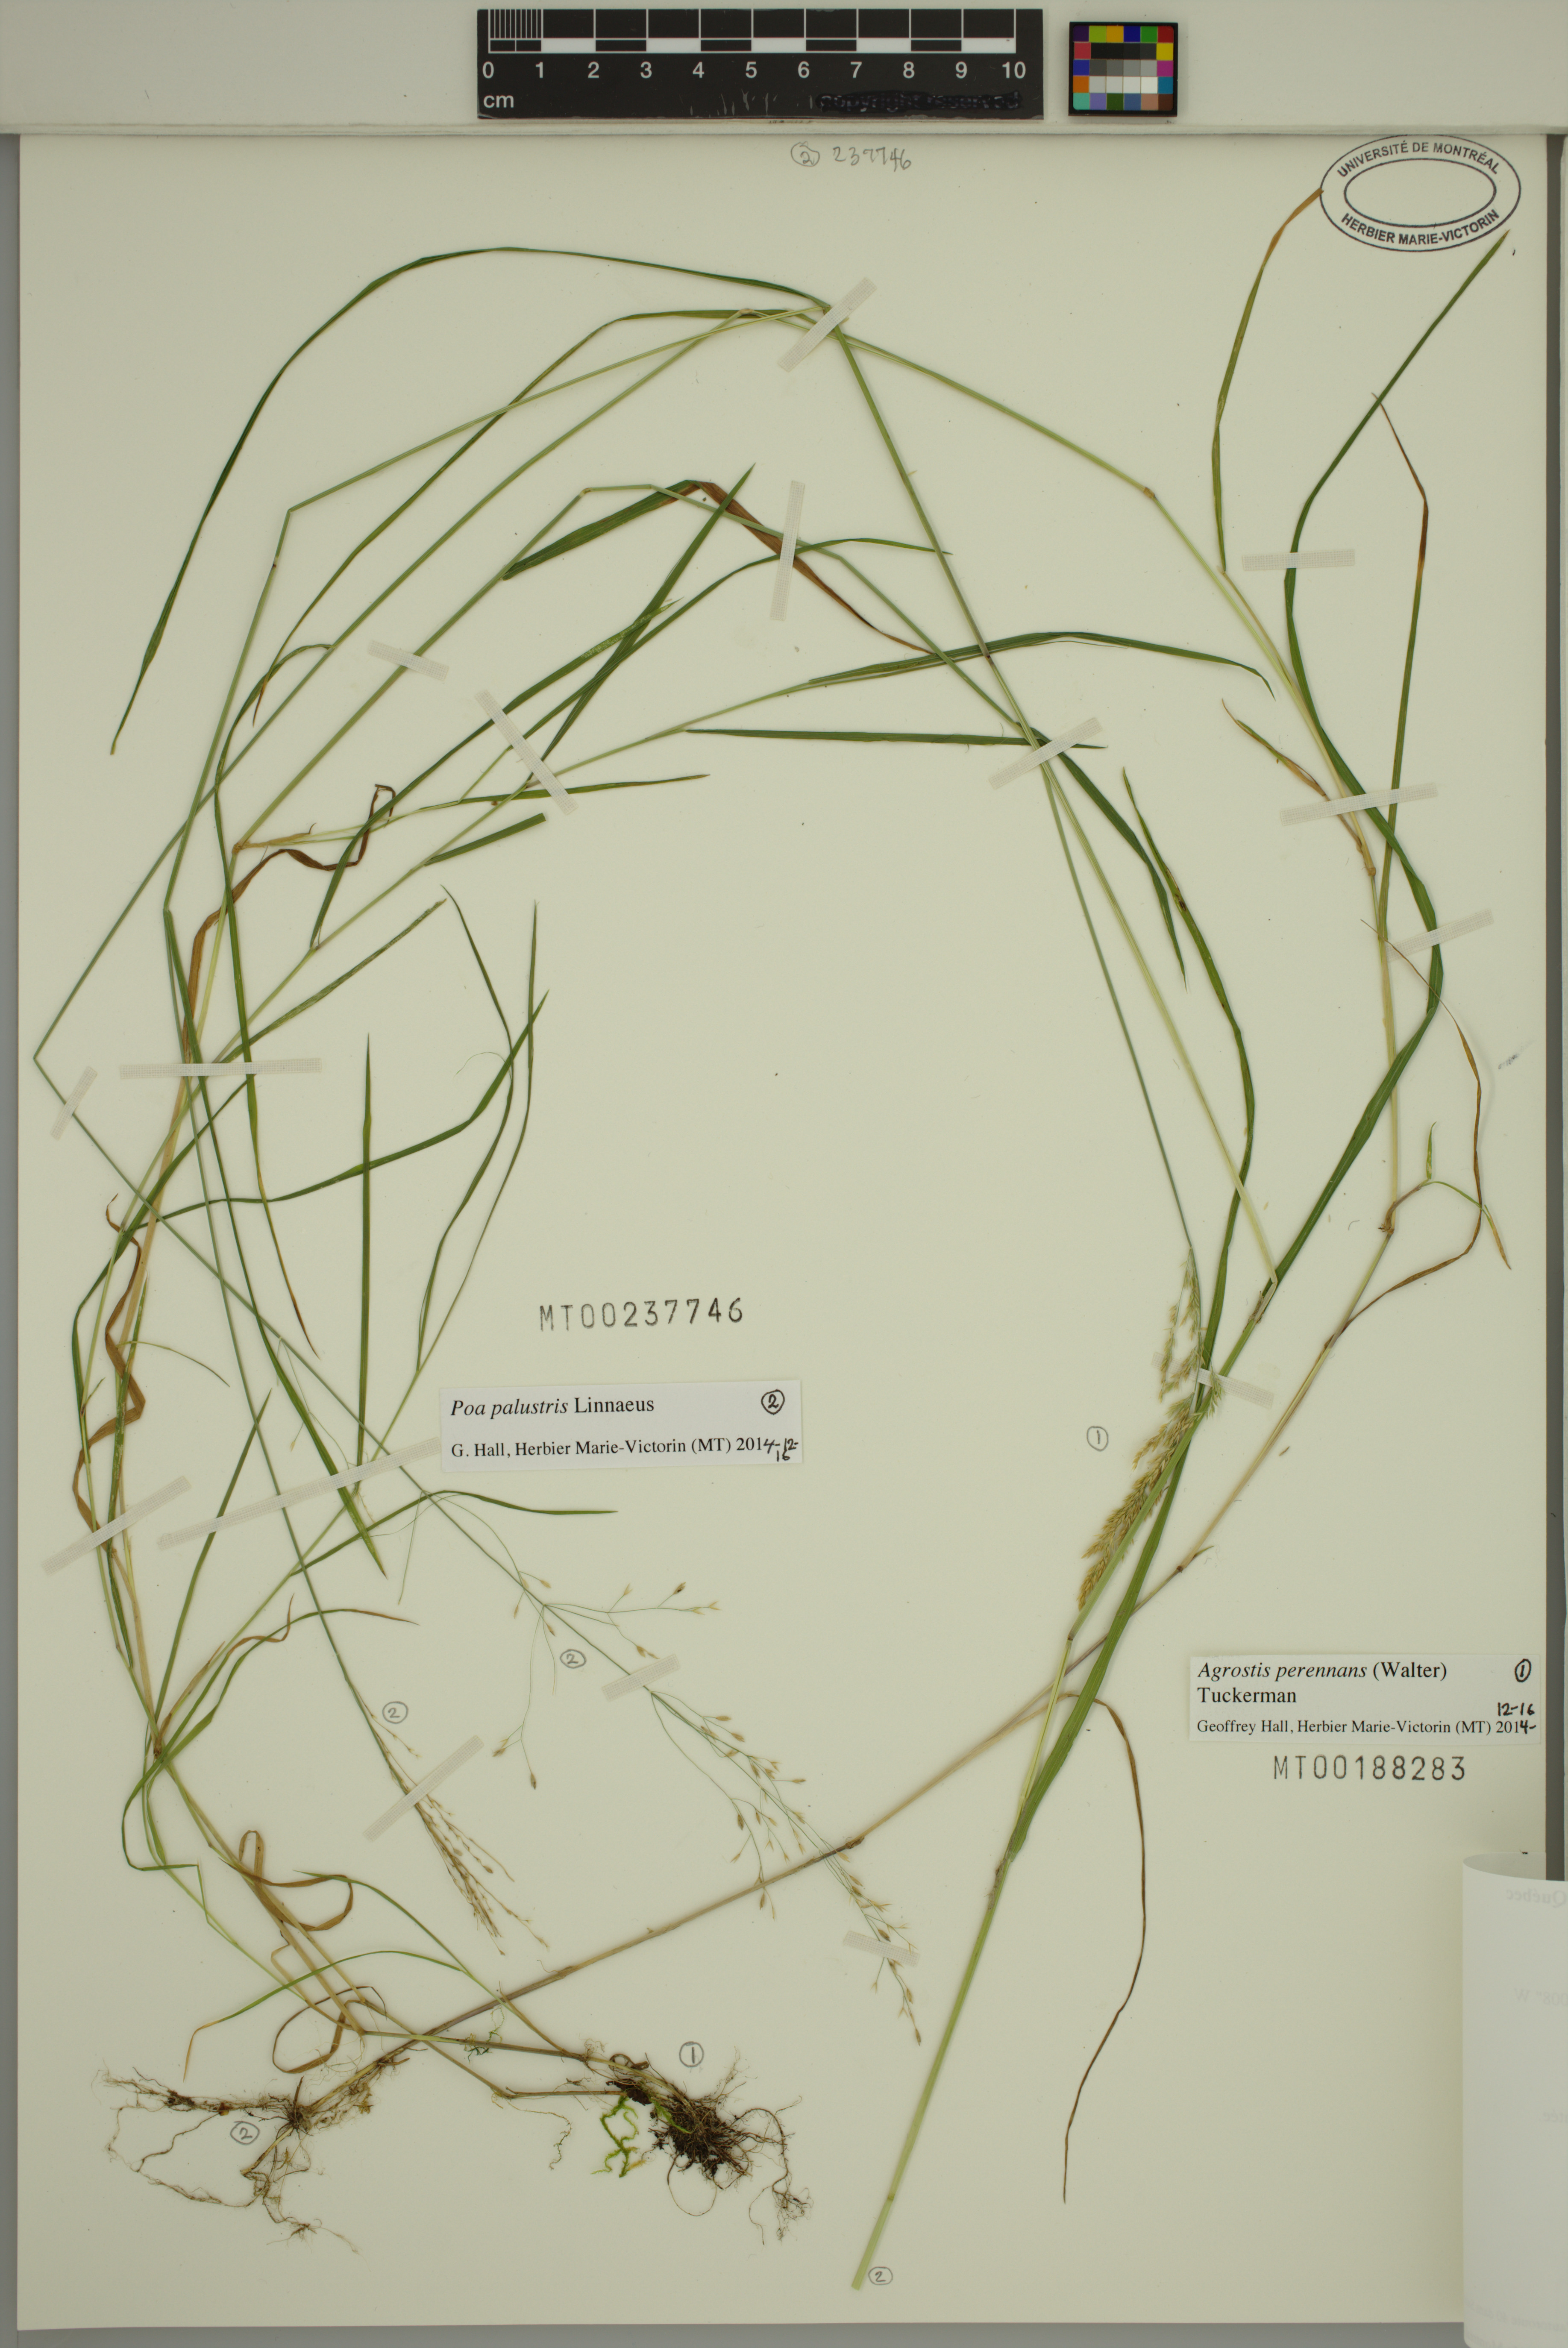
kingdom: Plantae
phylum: Tracheophyta
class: Liliopsida
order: Poales
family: Poaceae
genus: Poa
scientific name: Poa palustris
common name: Swamp meadow-grass
